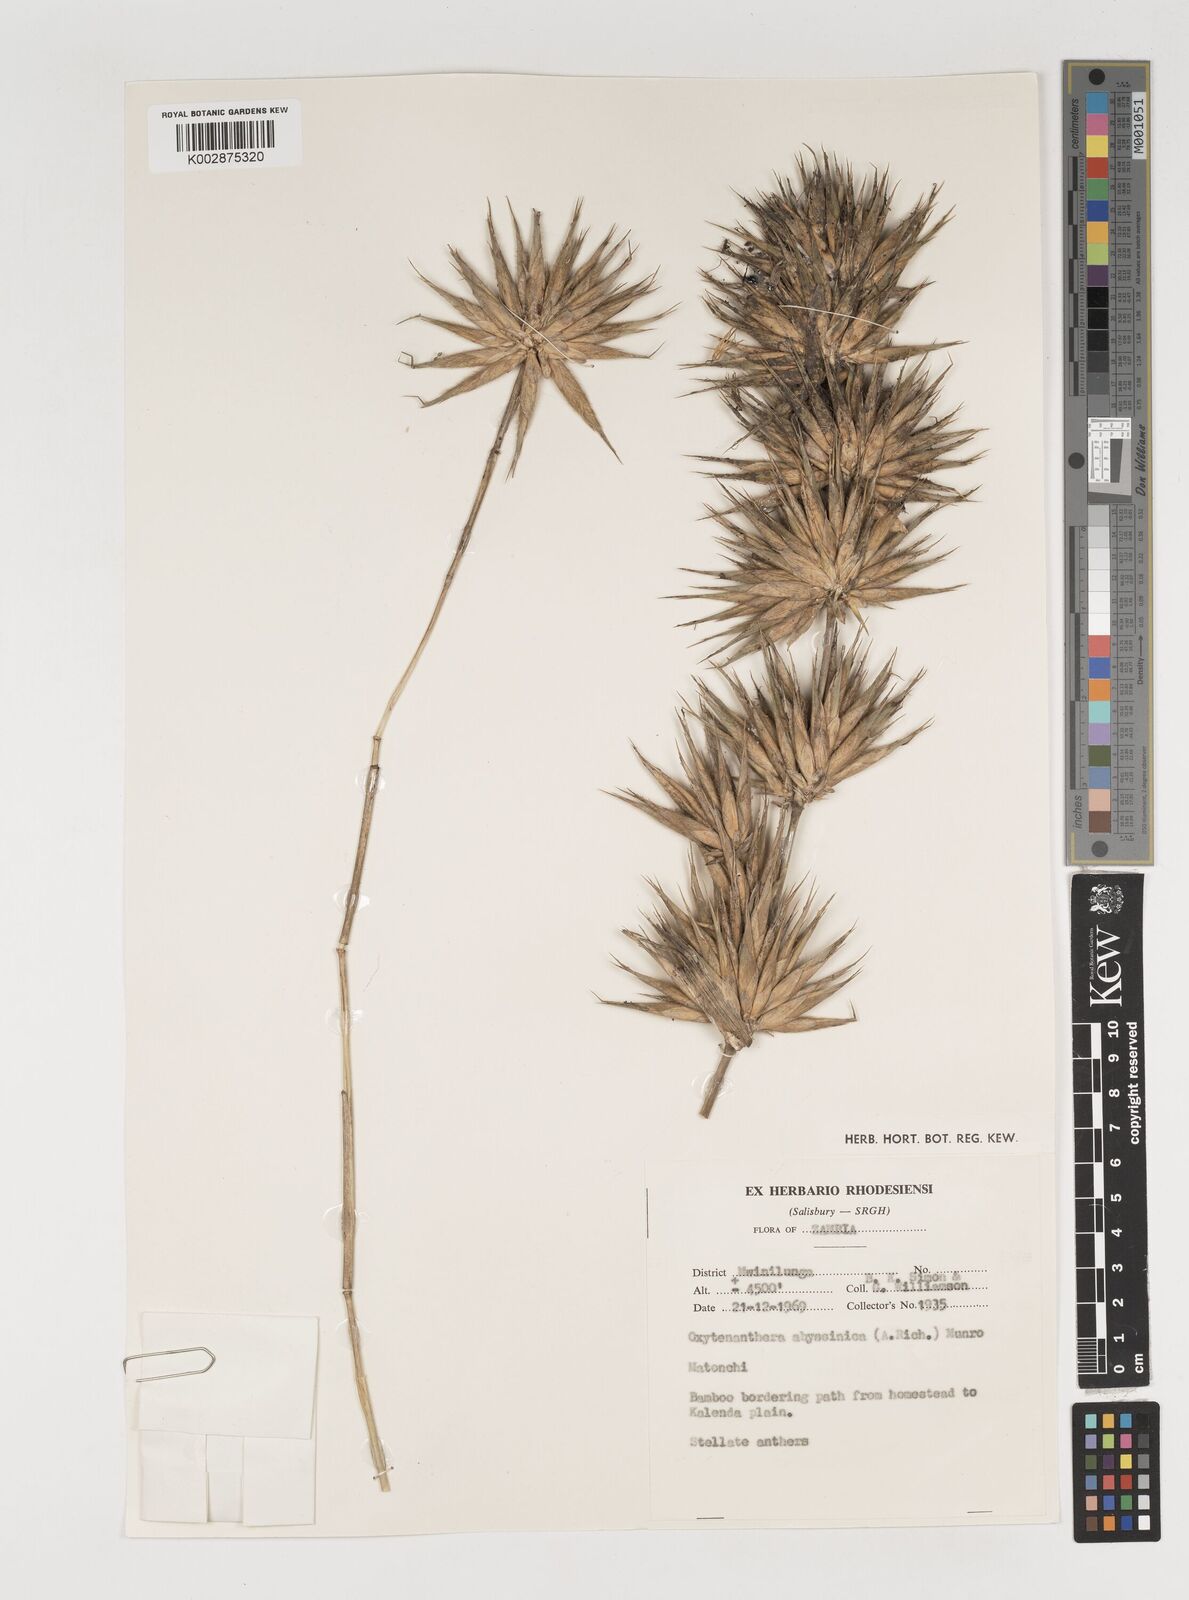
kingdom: Plantae
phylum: Tracheophyta
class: Liliopsida
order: Poales
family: Poaceae
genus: Oxytenanthera
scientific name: Oxytenanthera abyssinica
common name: Wine bamboo
